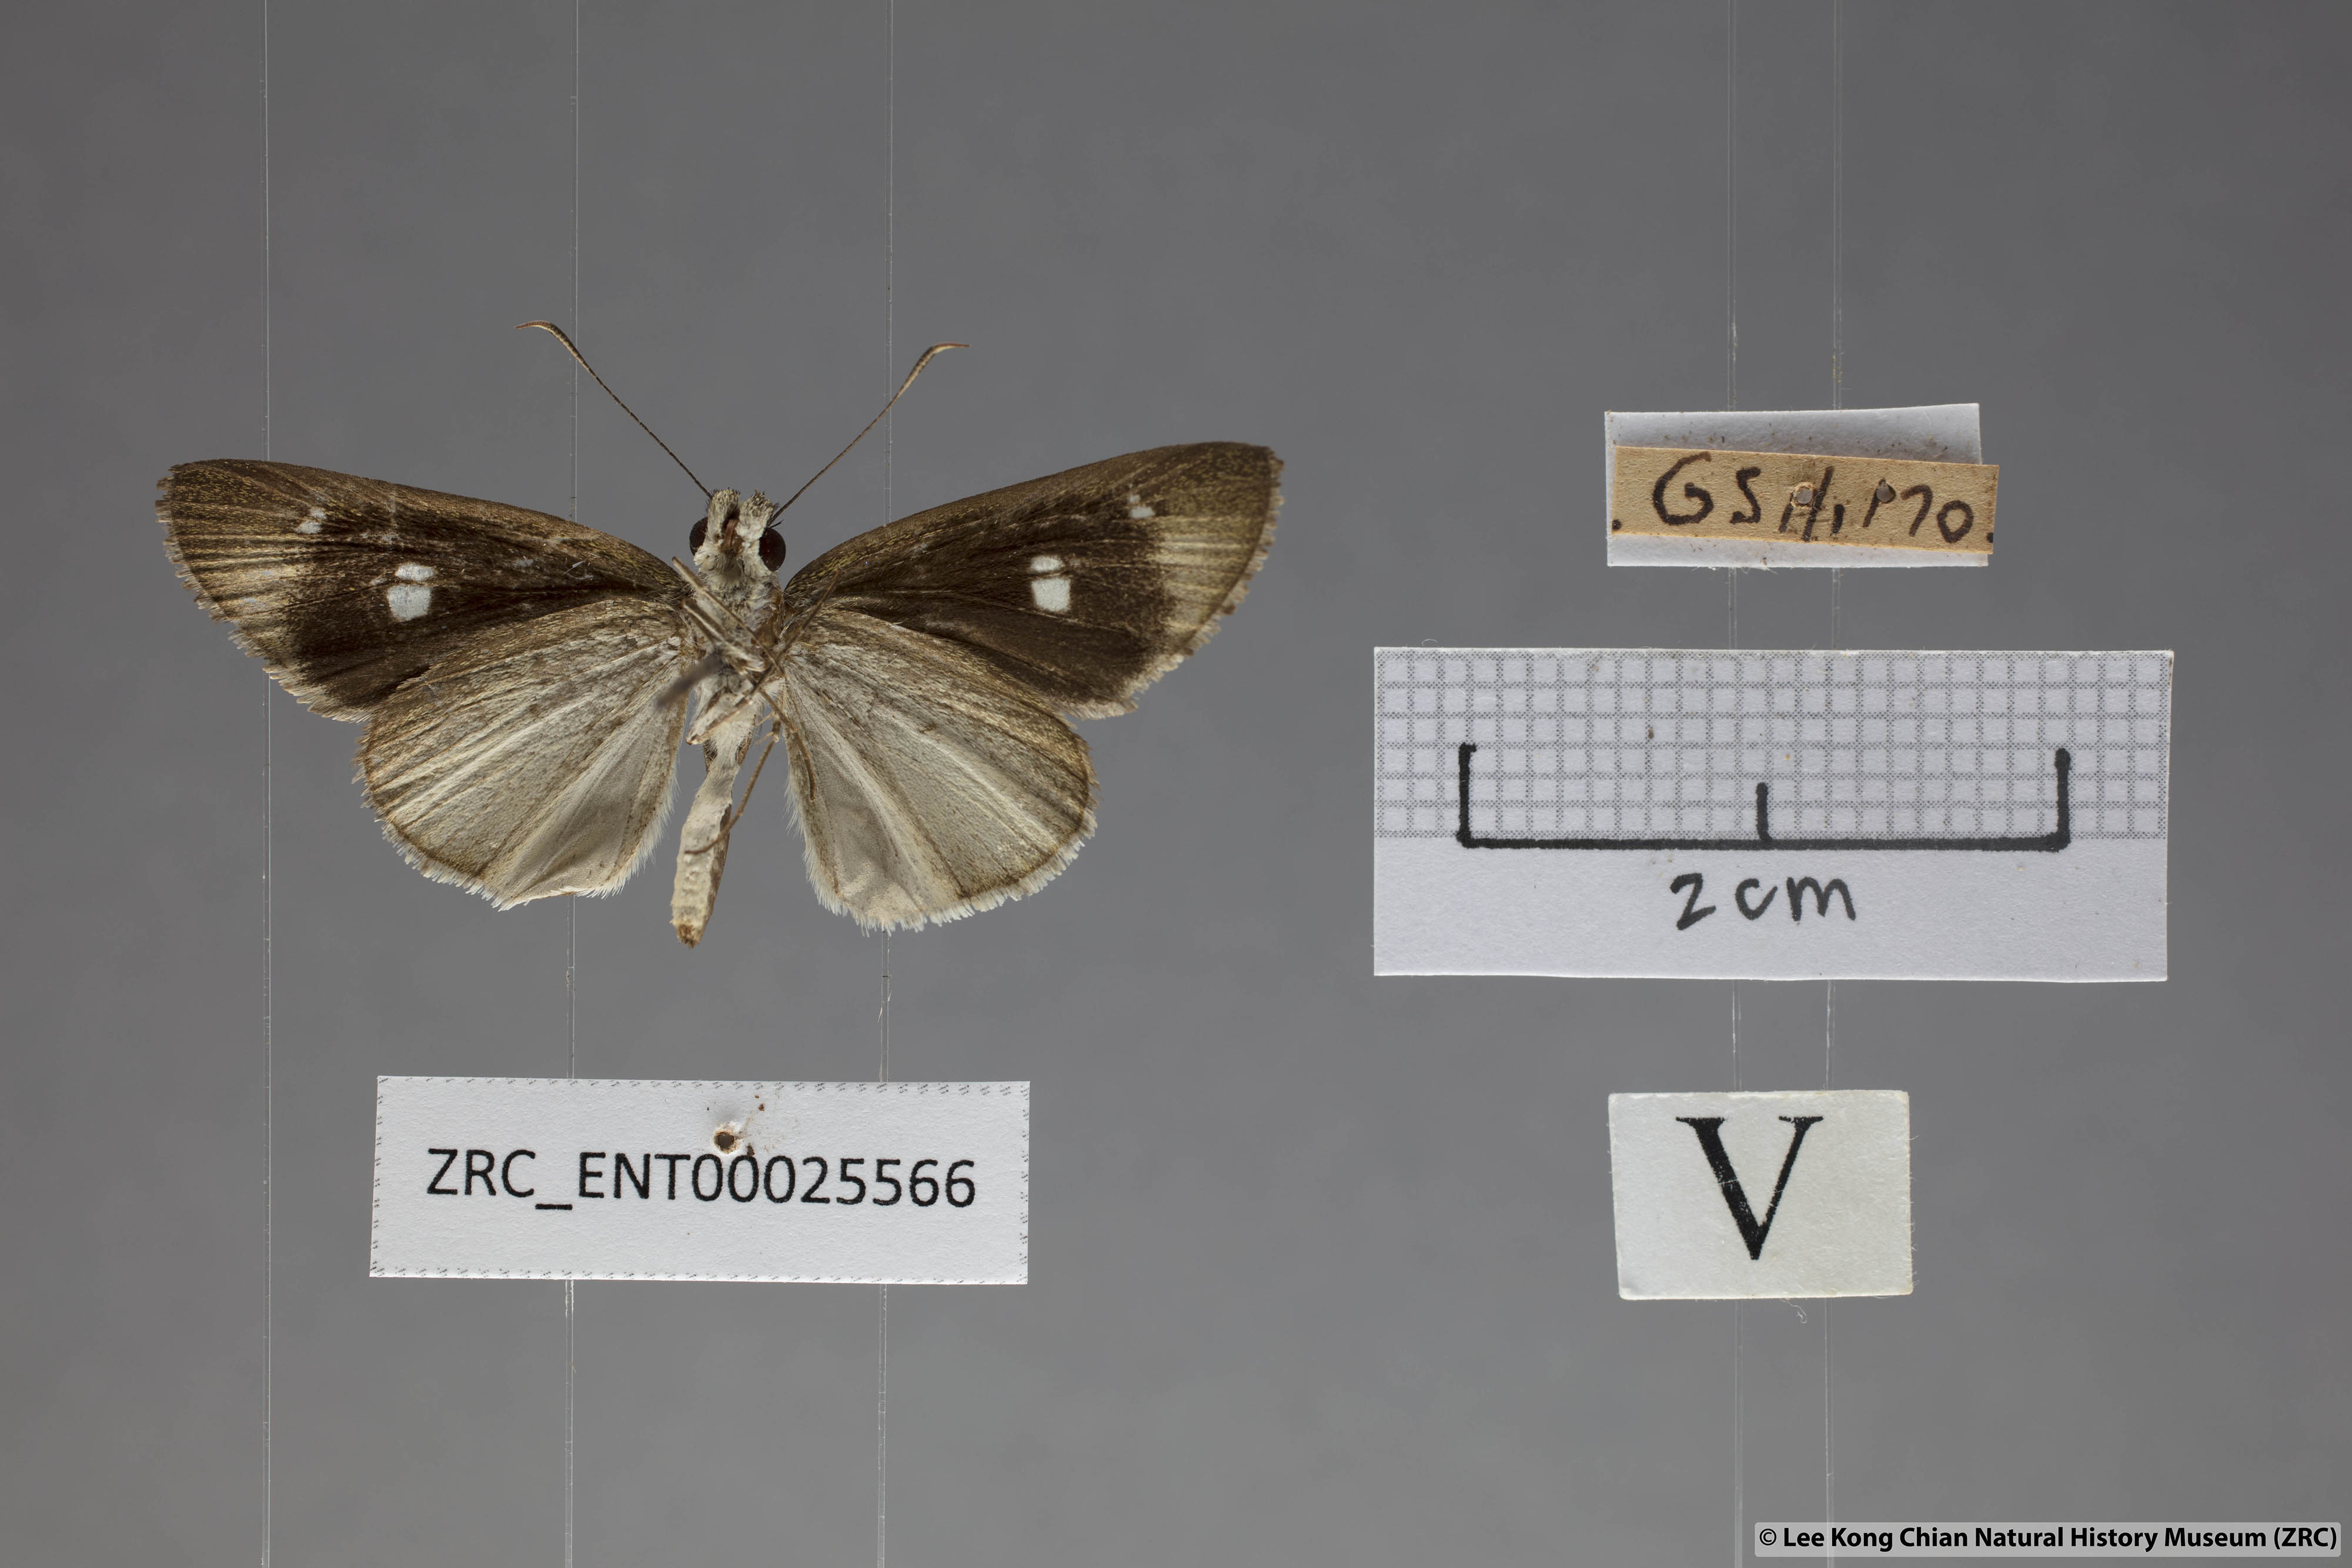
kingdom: Animalia
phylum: Arthropoda
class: Insecta
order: Lepidoptera
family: Hesperiidae
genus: Suada
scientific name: Suada swerga
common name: Grass bob
